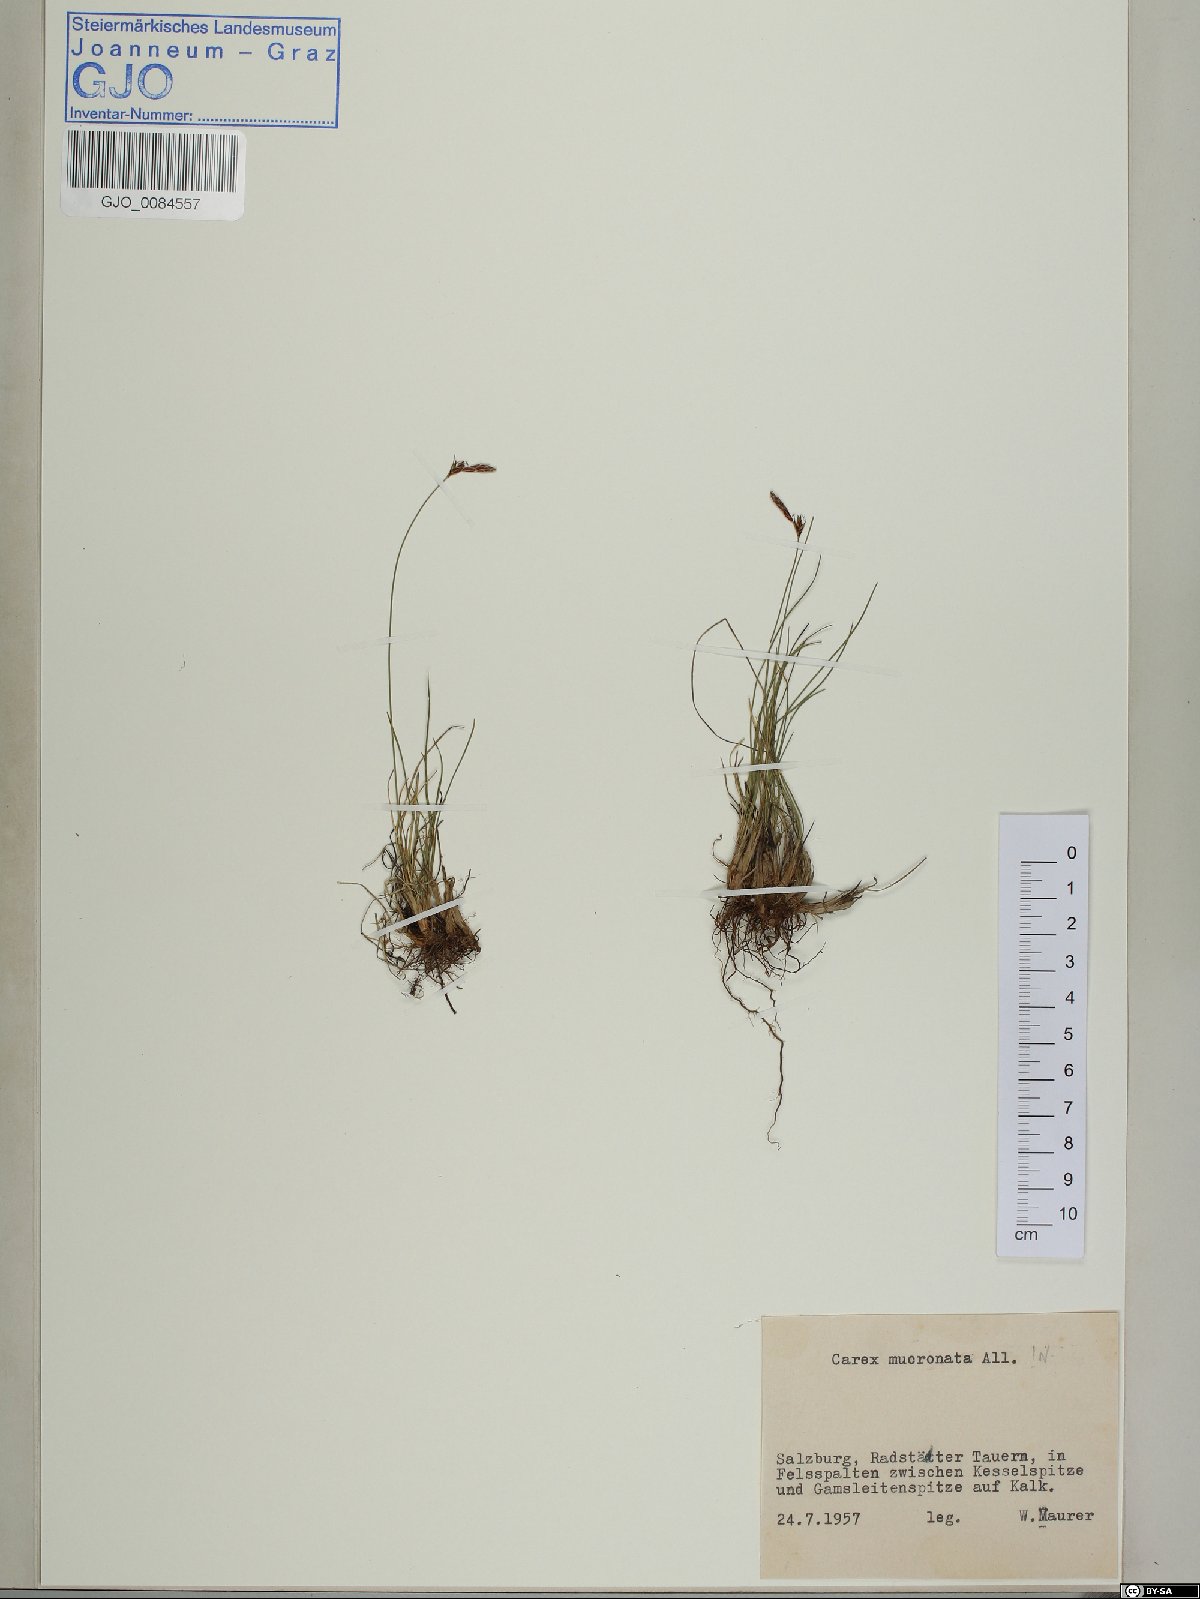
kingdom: Plantae
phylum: Tracheophyta
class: Liliopsida
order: Poales
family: Cyperaceae
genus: Carex
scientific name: Carex mucronata
